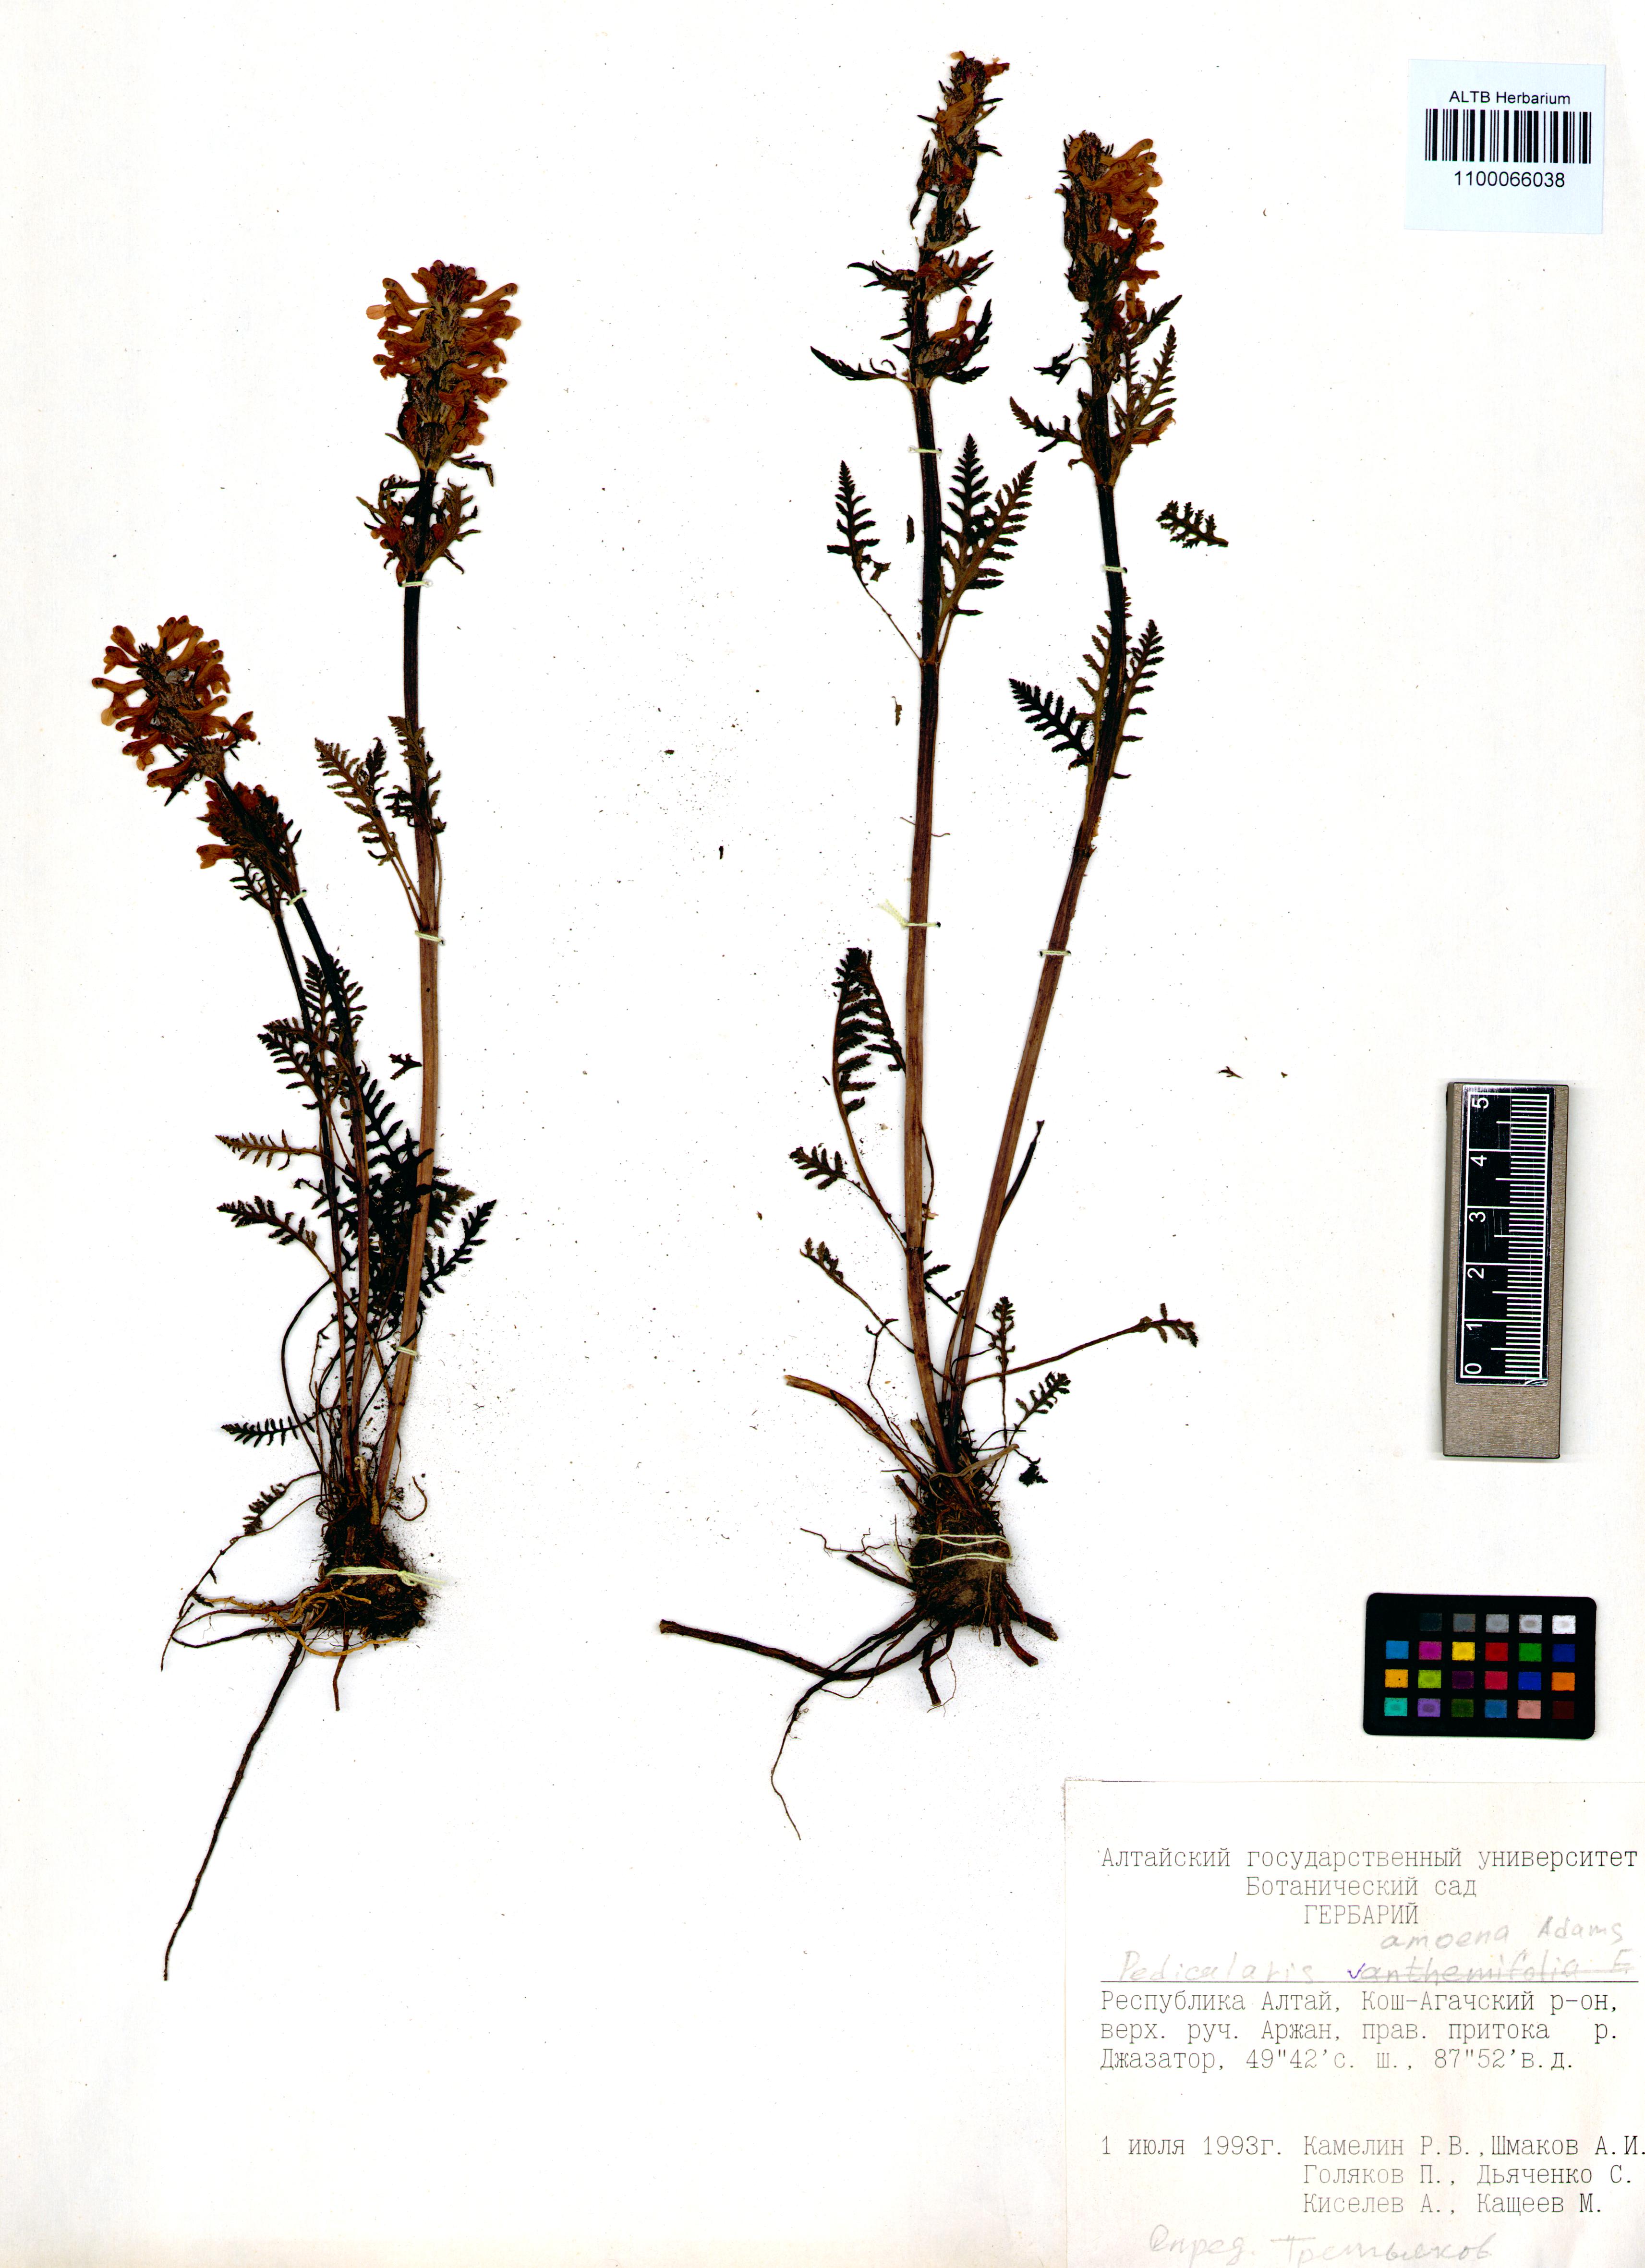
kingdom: Plantae
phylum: Tracheophyta
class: Magnoliopsida
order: Lamiales
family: Orobanchaceae
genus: Pedicularis
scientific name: Pedicularis amoena
